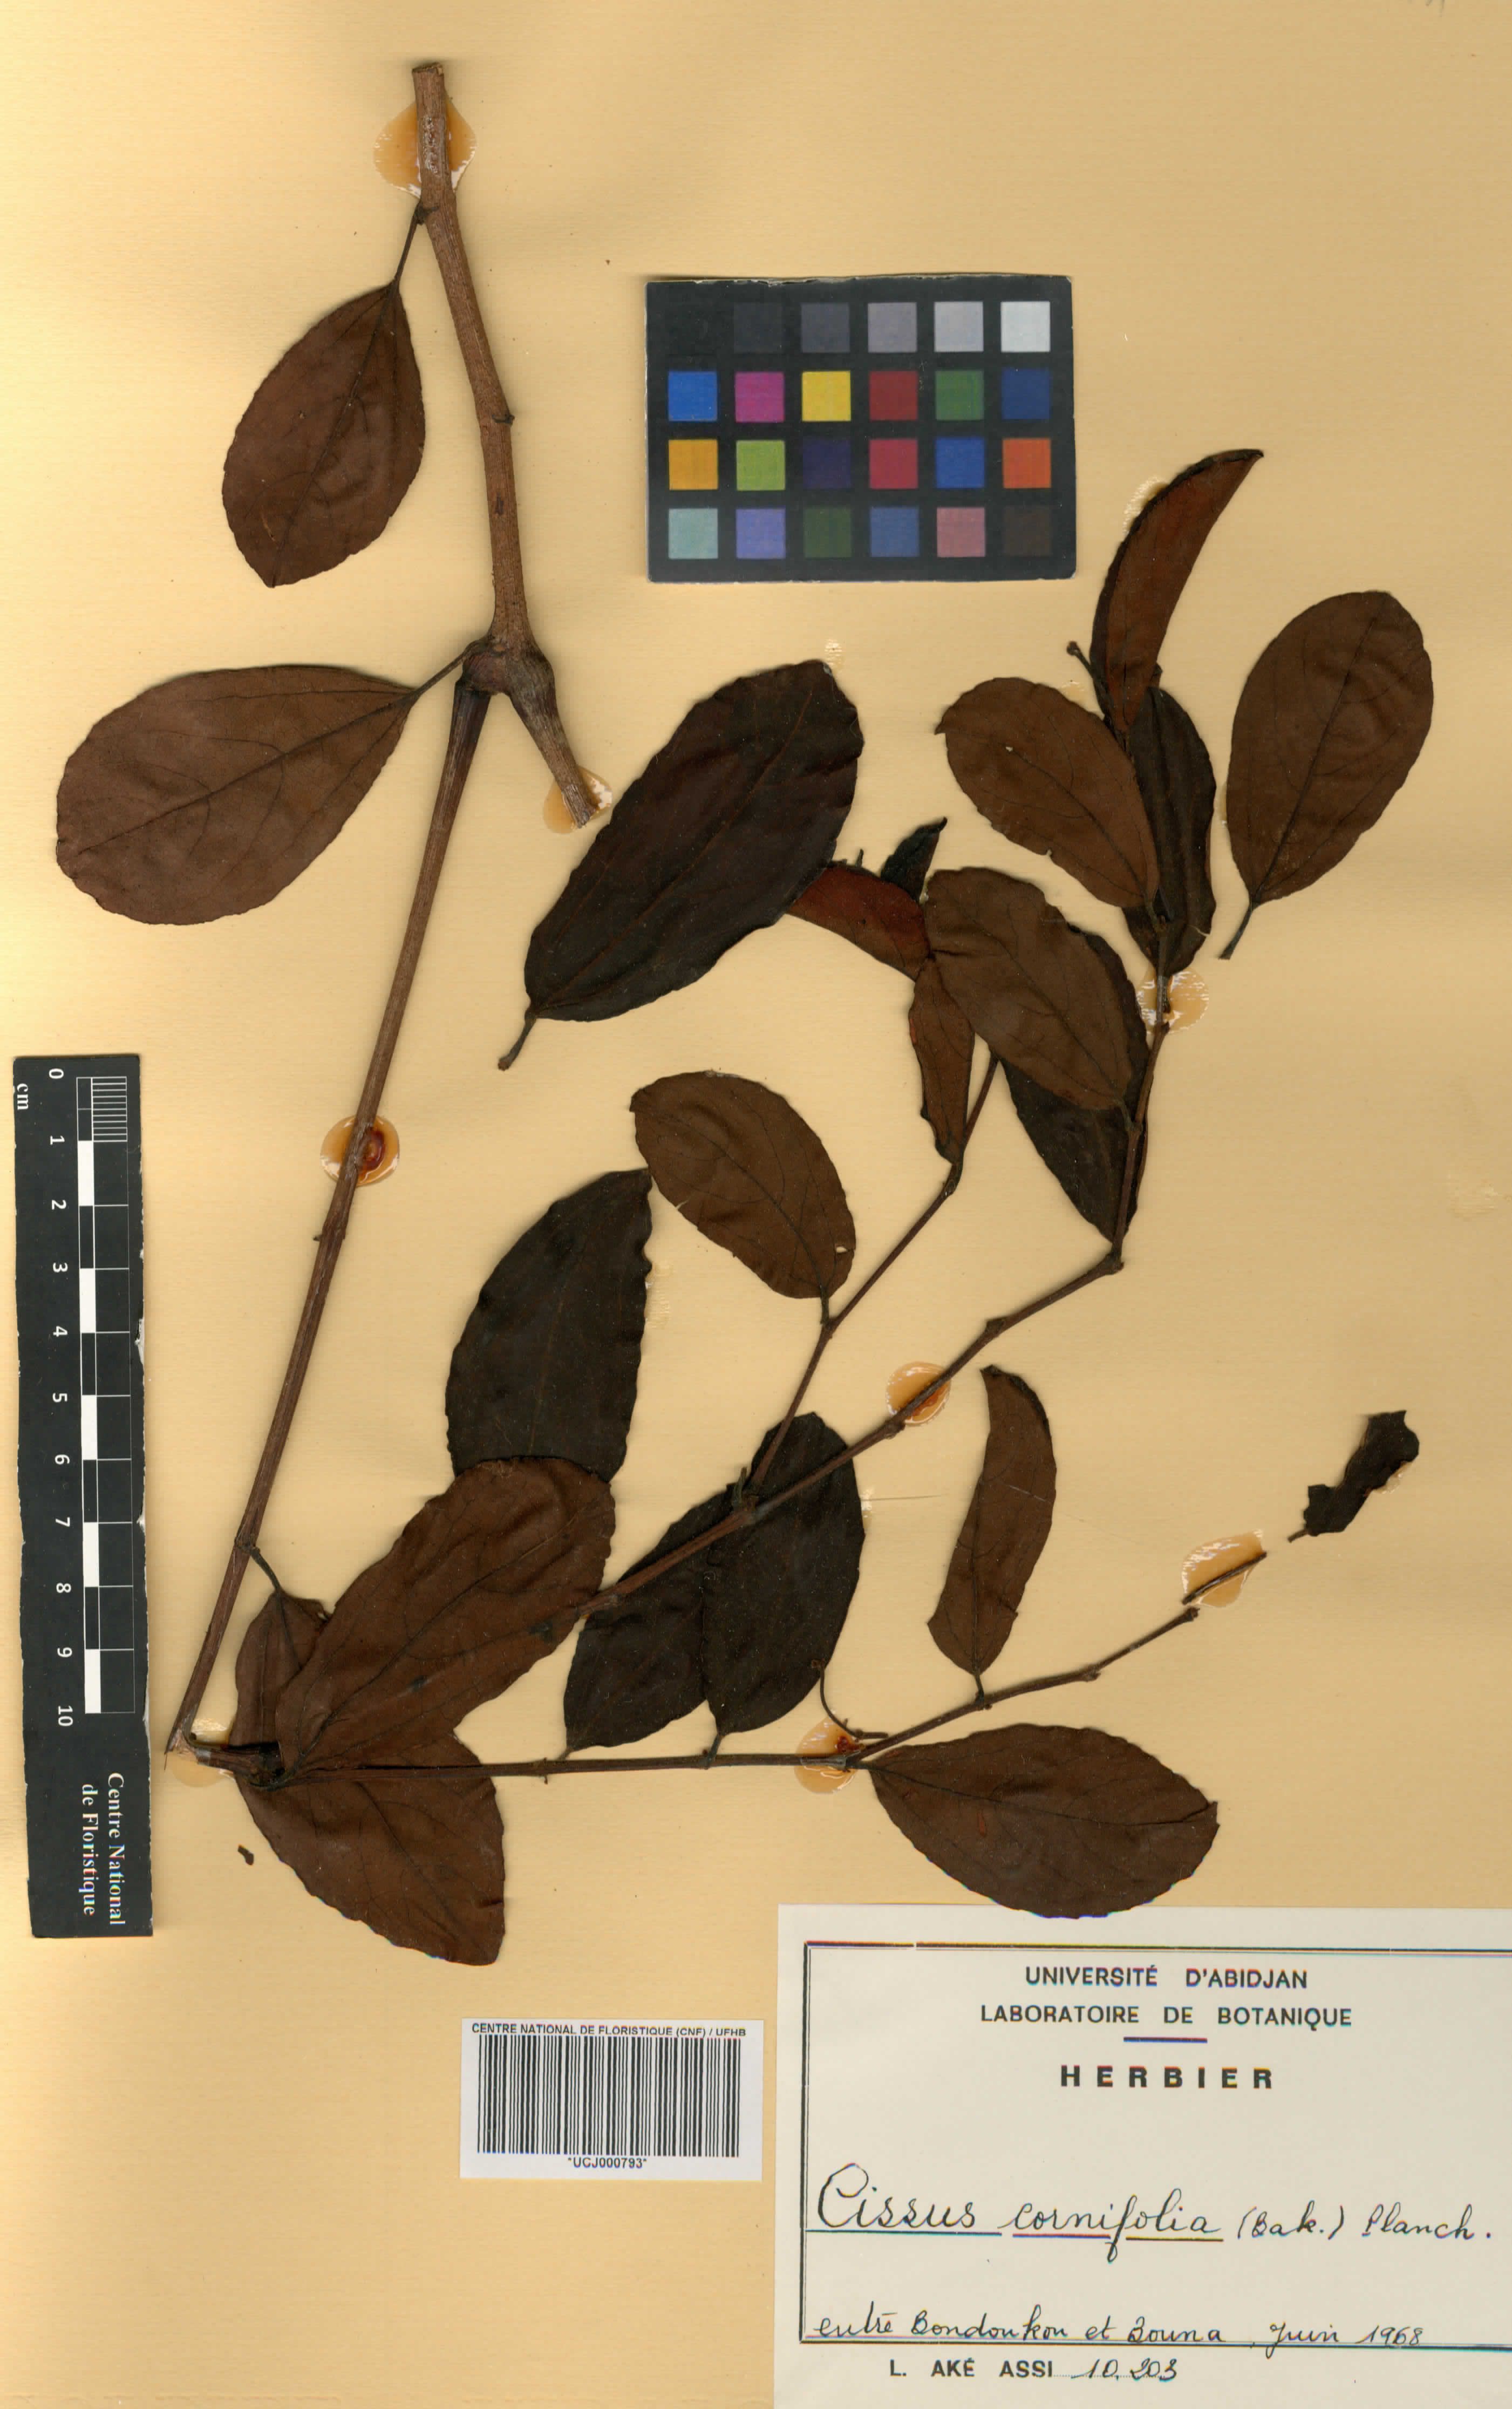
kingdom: Plantae
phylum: Tracheophyta
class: Magnoliopsida
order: Vitales
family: Vitaceae
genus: Cissus
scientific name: Cissus cornifolia
